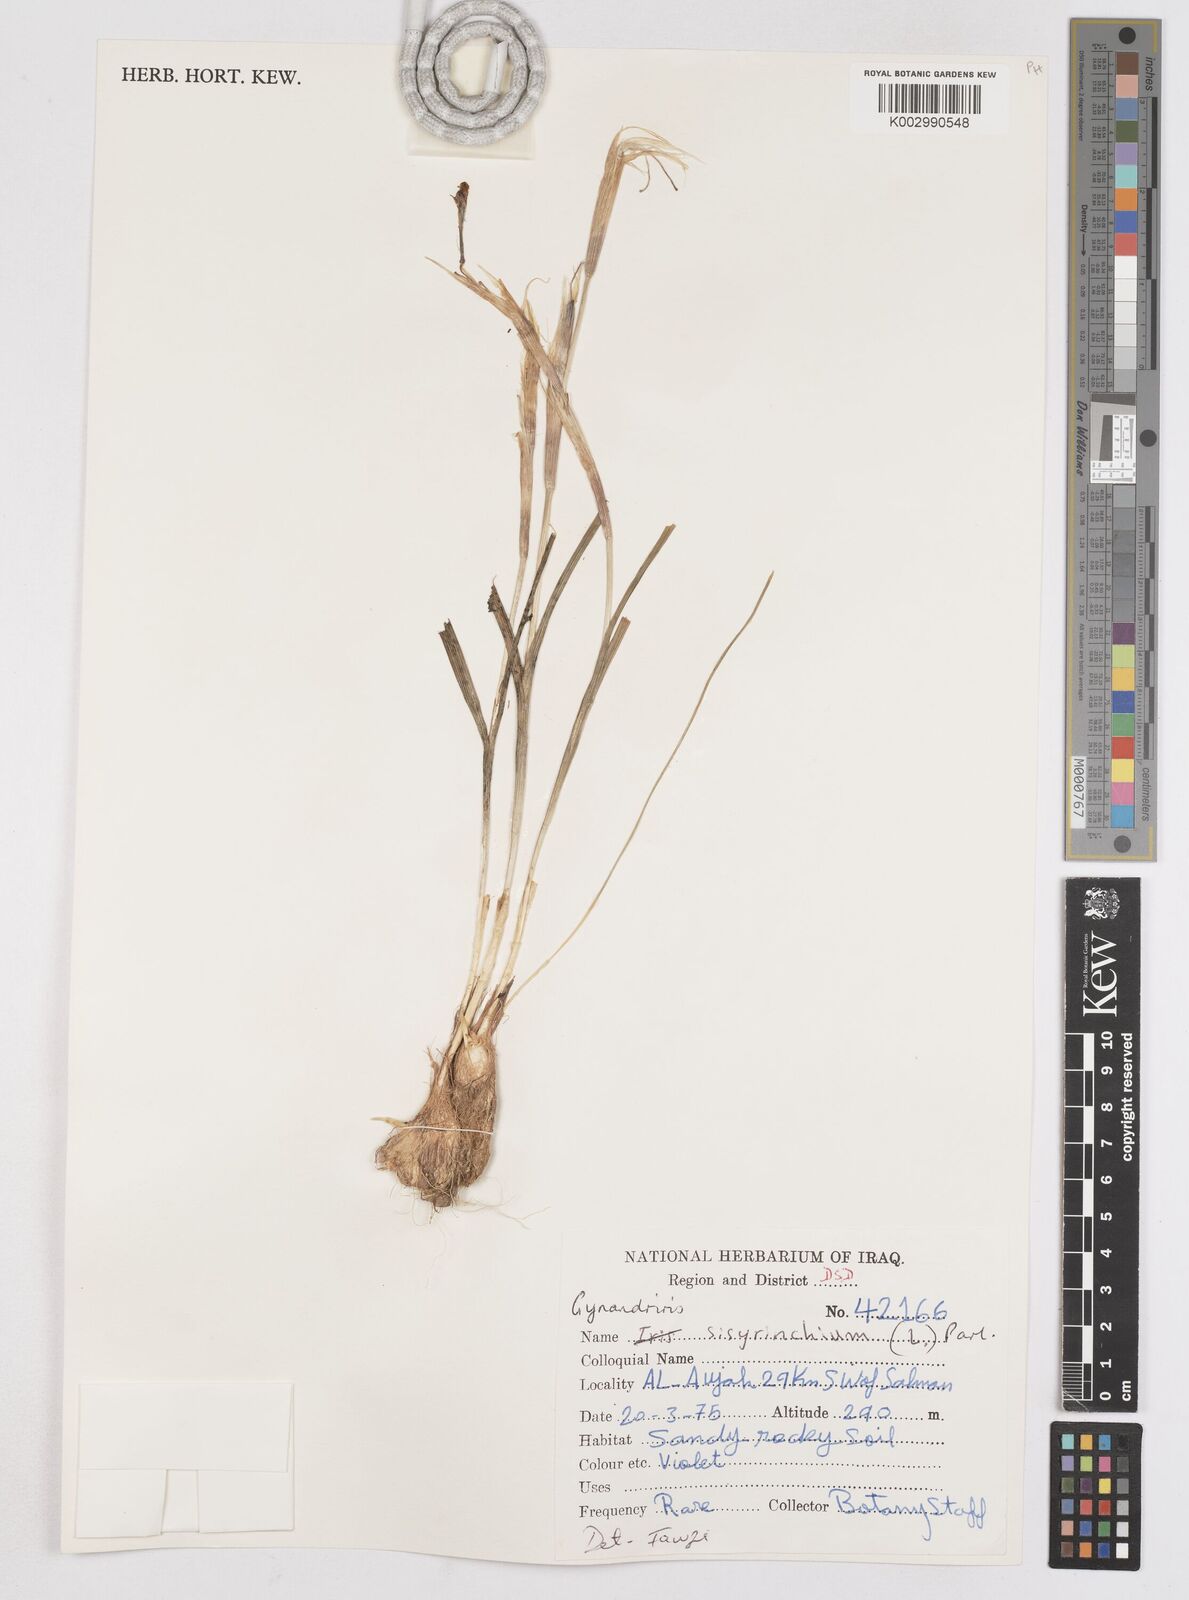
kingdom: Plantae
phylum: Tracheophyta
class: Liliopsida
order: Asparagales
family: Iridaceae
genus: Moraea
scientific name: Moraea sisyrinchium
